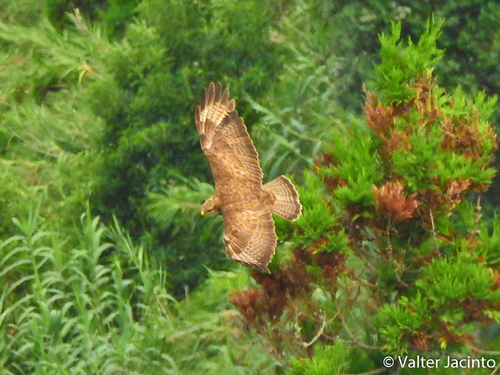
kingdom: Animalia
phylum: Chordata
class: Aves
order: Accipitriformes
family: Accipitridae
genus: Buteo
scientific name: Buteo buteo
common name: Common buzzard
